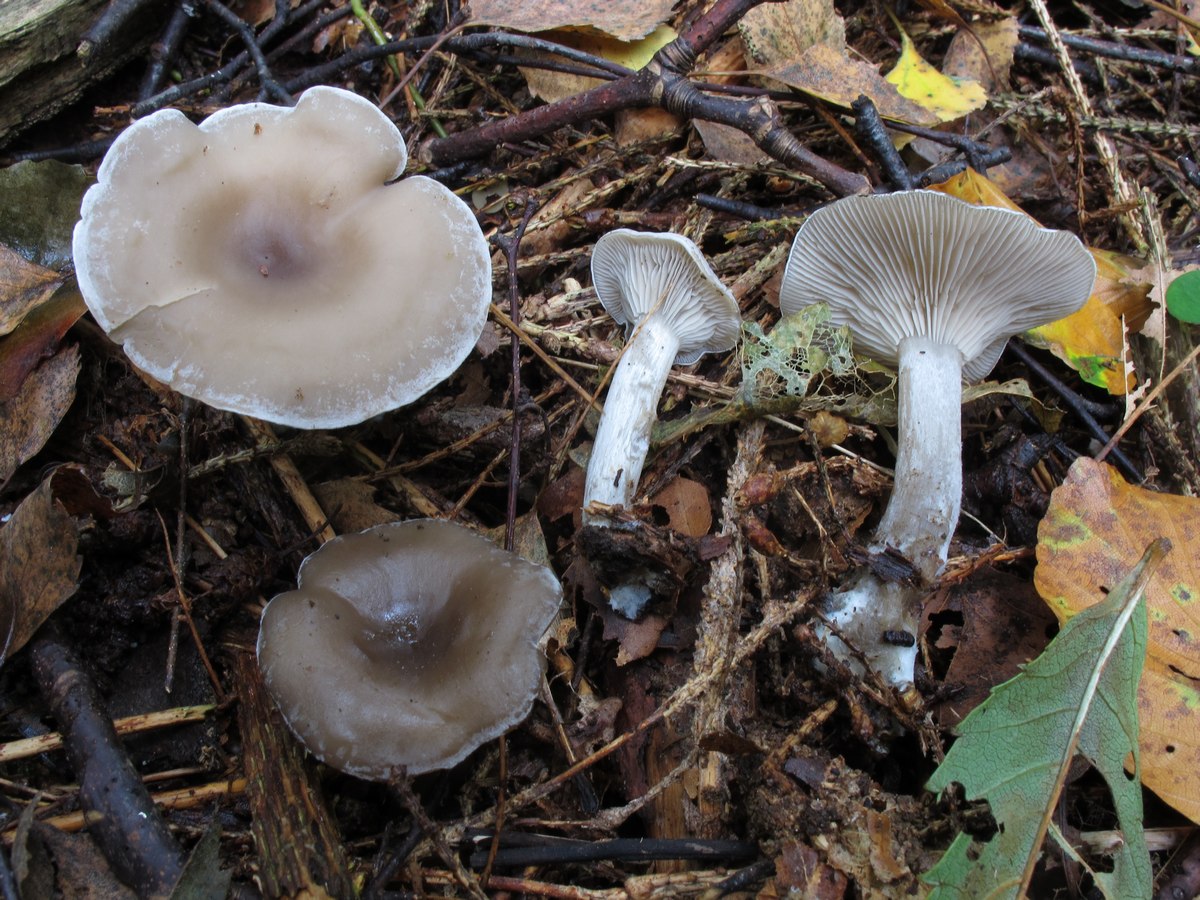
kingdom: Fungi
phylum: Basidiomycota
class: Agaricomycetes
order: Agaricales
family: Tricholomataceae
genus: Clitocybe
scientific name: Clitocybe metachroa
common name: grå tragthat
